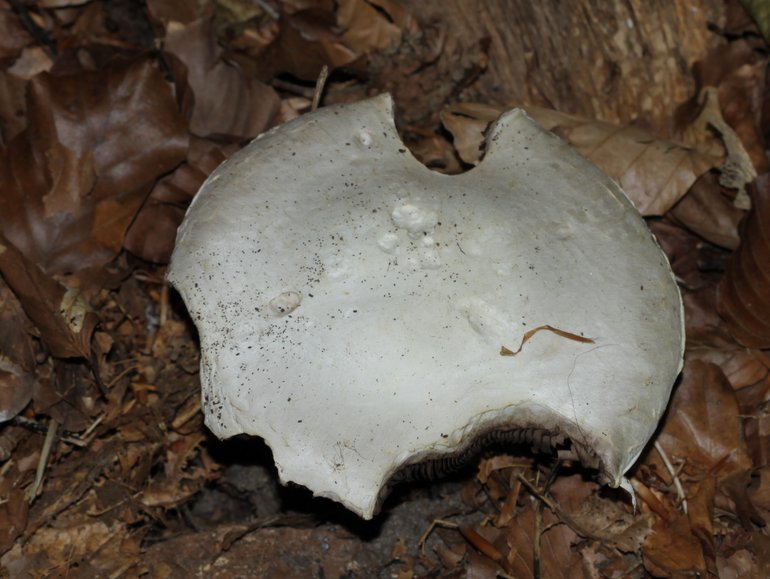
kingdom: Fungi
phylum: Basidiomycota
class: Agaricomycetes
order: Agaricales
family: Agaricaceae
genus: Agaricus
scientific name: Agaricus altipes
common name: sommer-champignon
